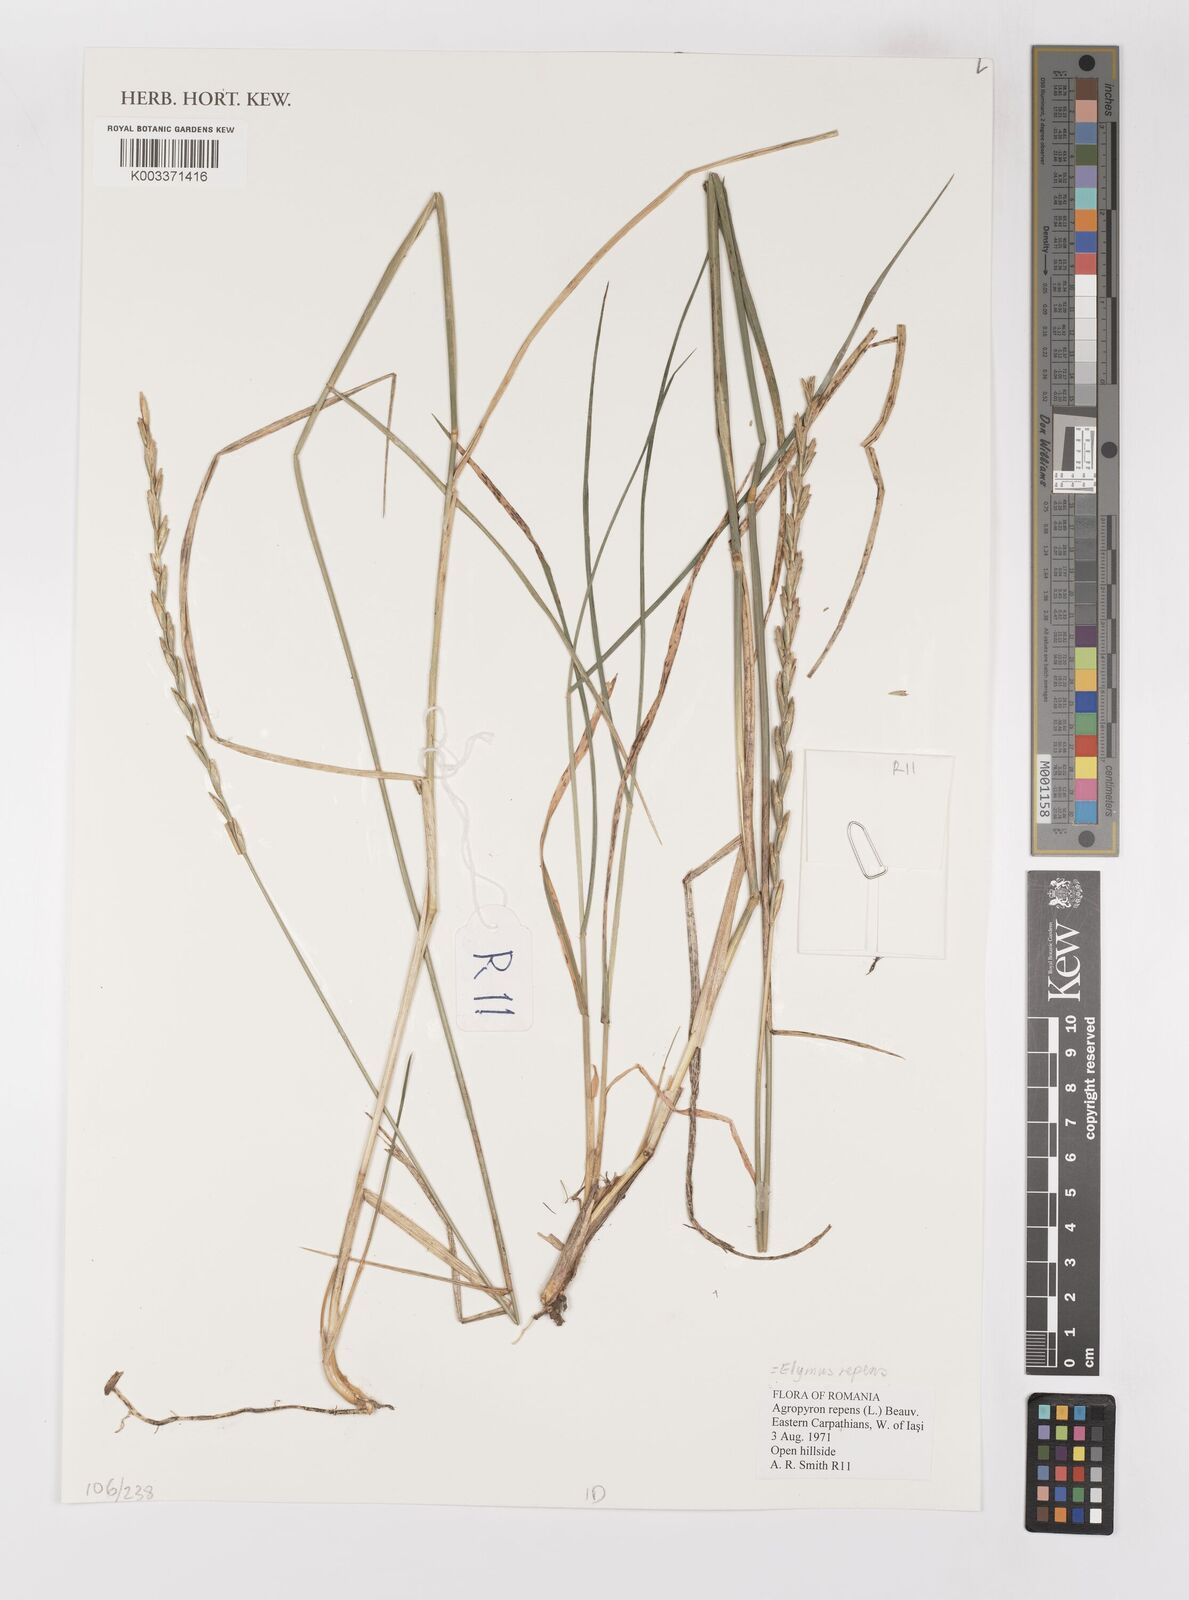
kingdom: Plantae
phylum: Tracheophyta
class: Liliopsida
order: Poales
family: Poaceae
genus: Elymus
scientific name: Elymus repens
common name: Quackgrass
